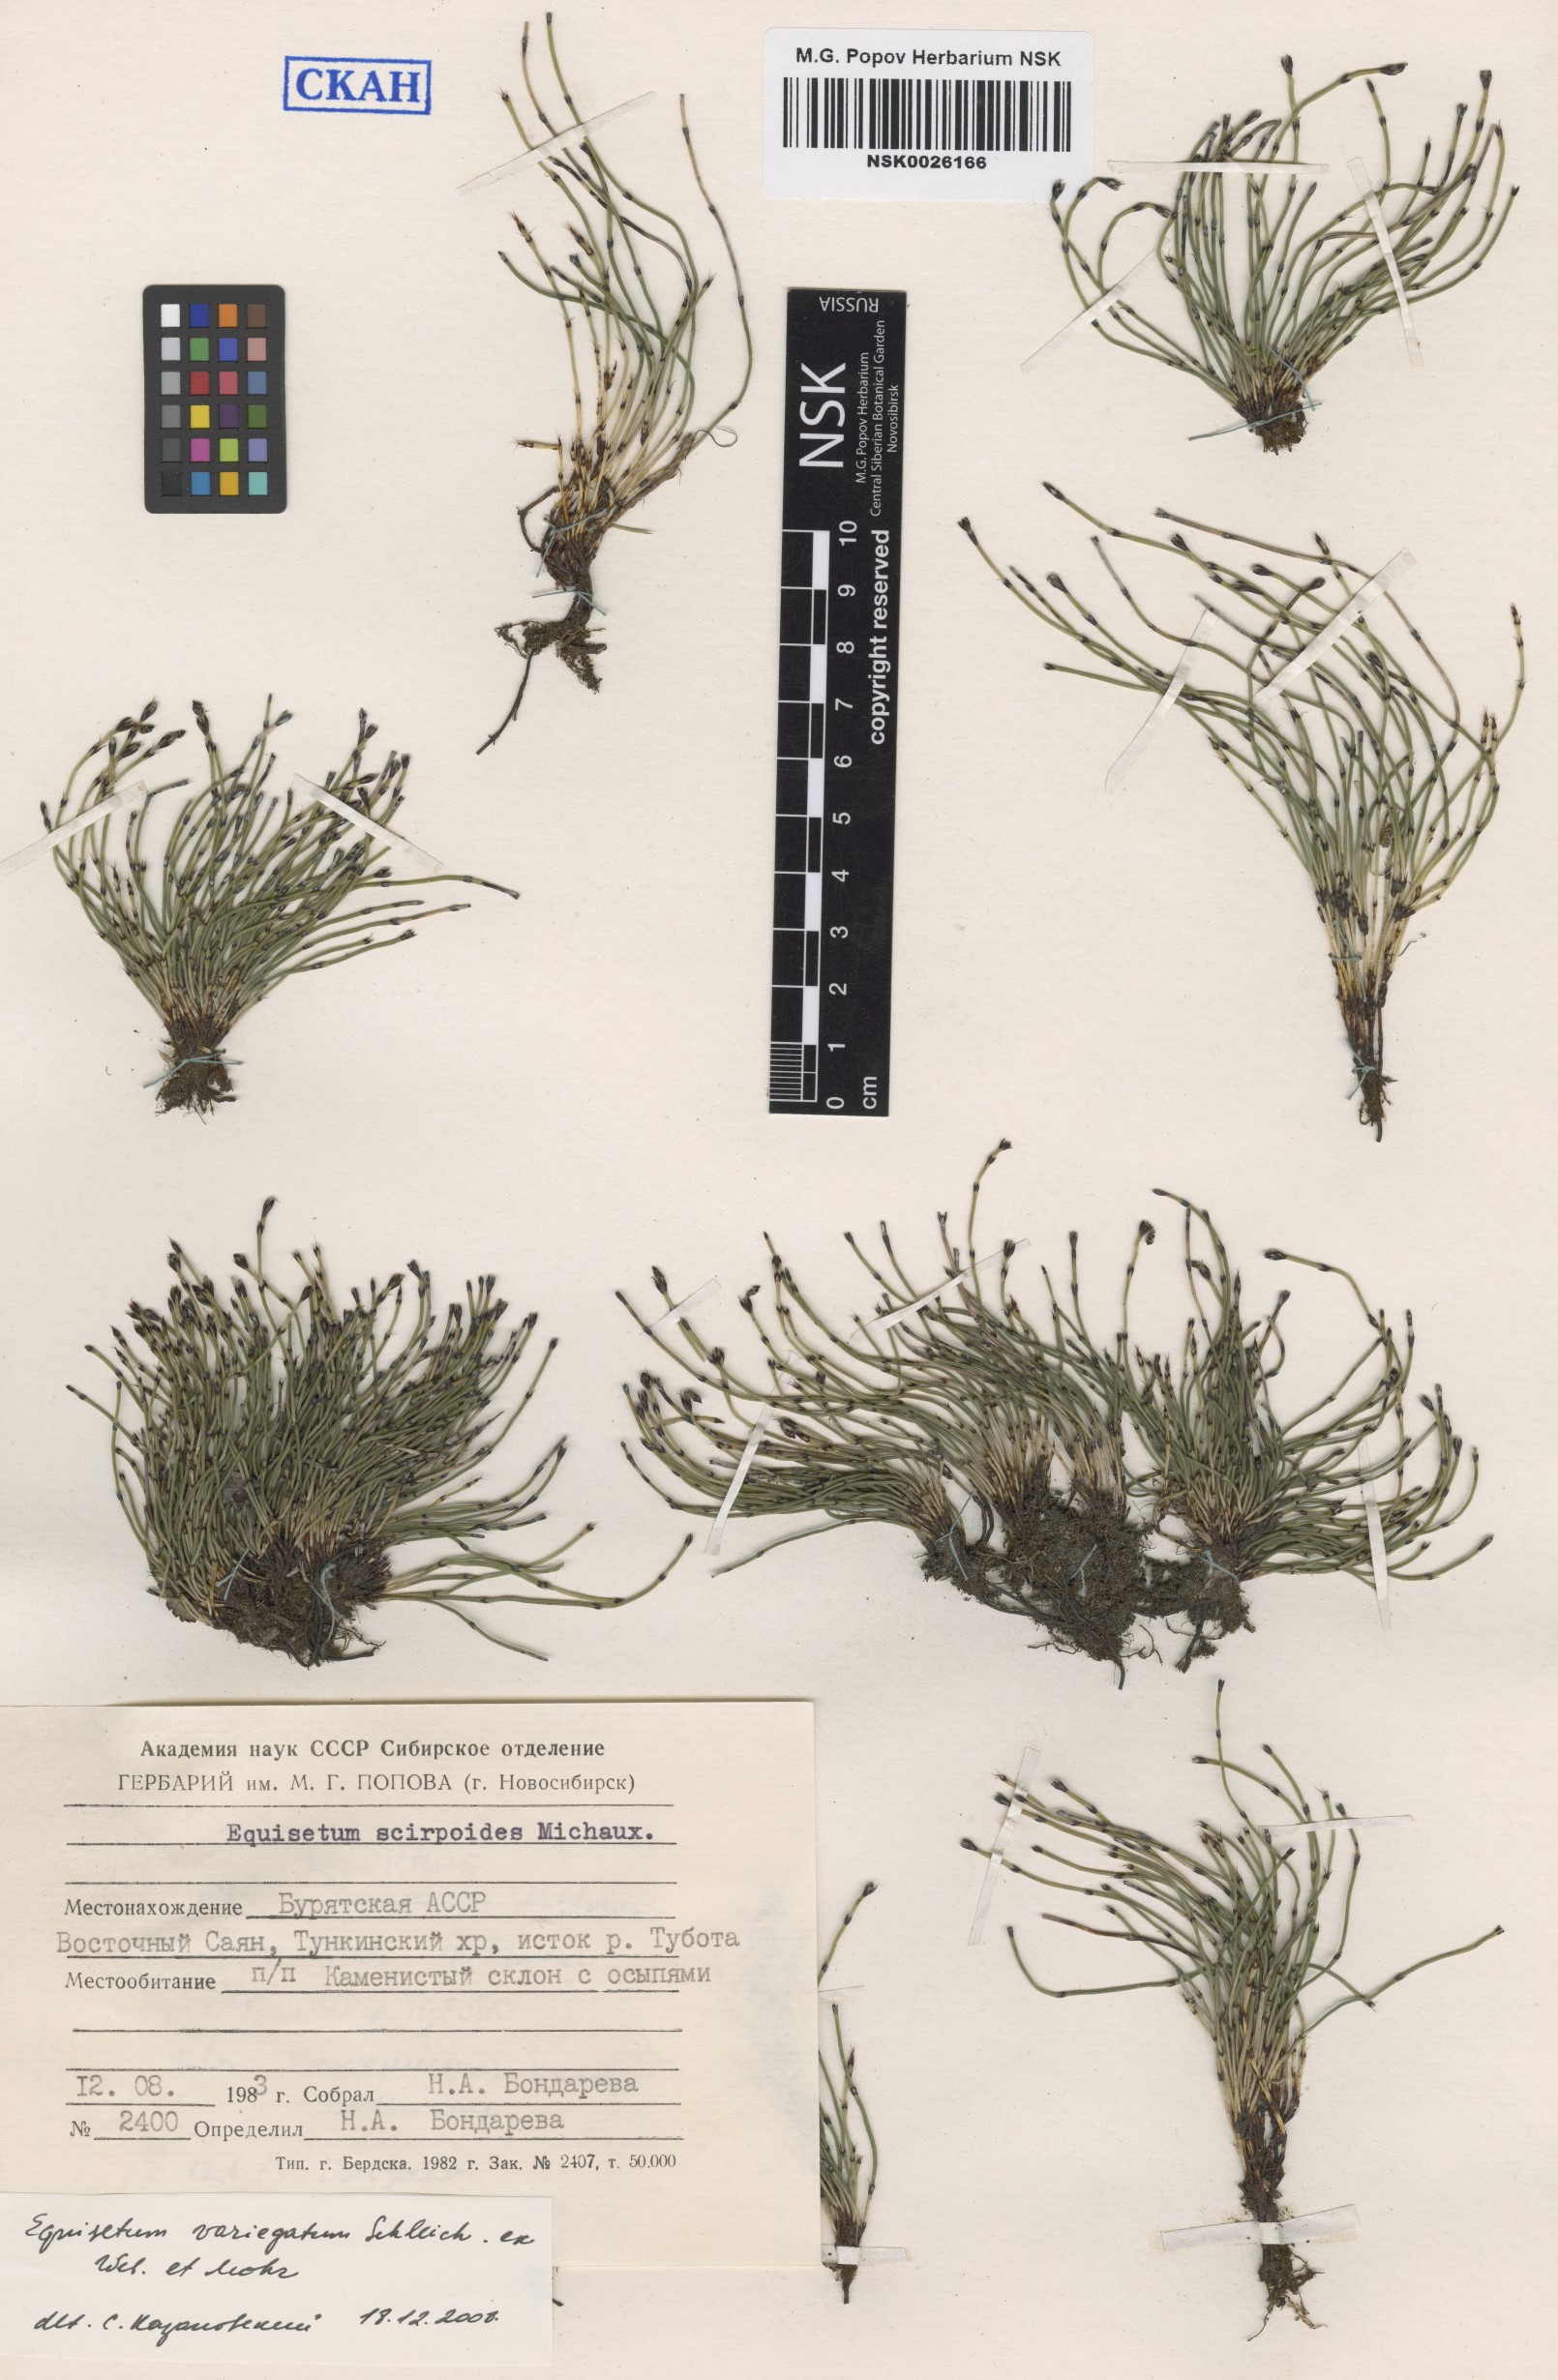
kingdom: Plantae
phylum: Tracheophyta
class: Polypodiopsida
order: Equisetales
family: Equisetaceae
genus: Equisetum
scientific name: Equisetum variegatum
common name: Variegated horsetail
